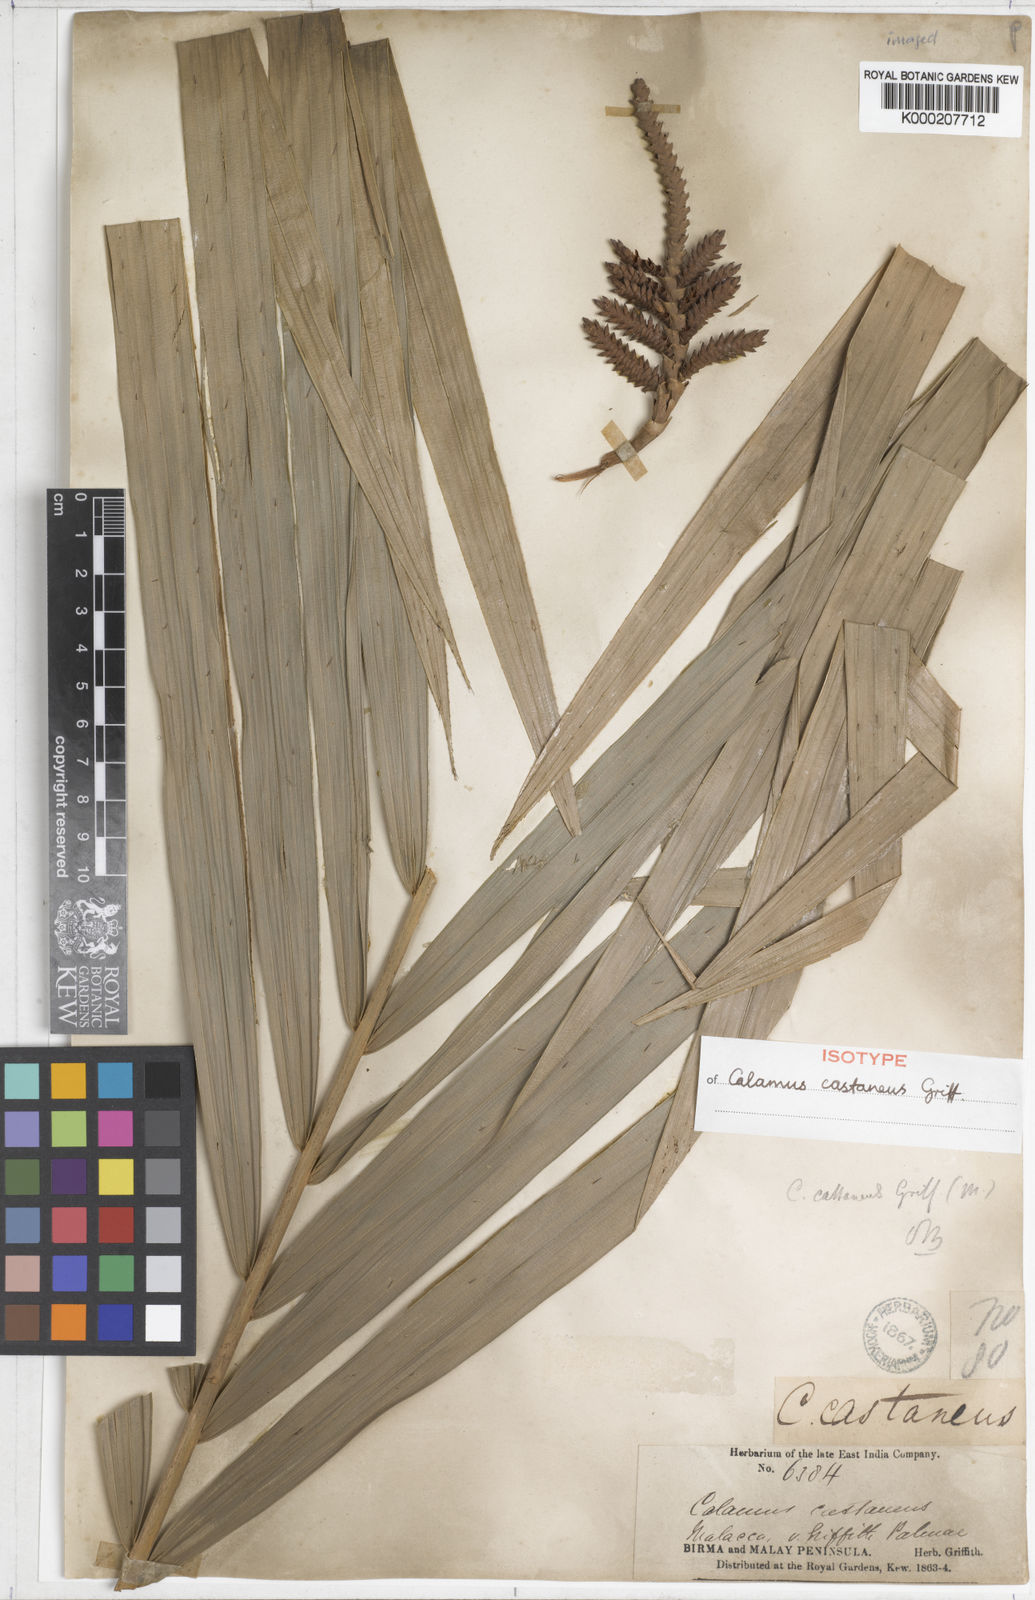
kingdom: Plantae
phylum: Tracheophyta
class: Liliopsida
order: Arecales
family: Arecaceae
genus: Calamus
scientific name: Calamus castaneus
